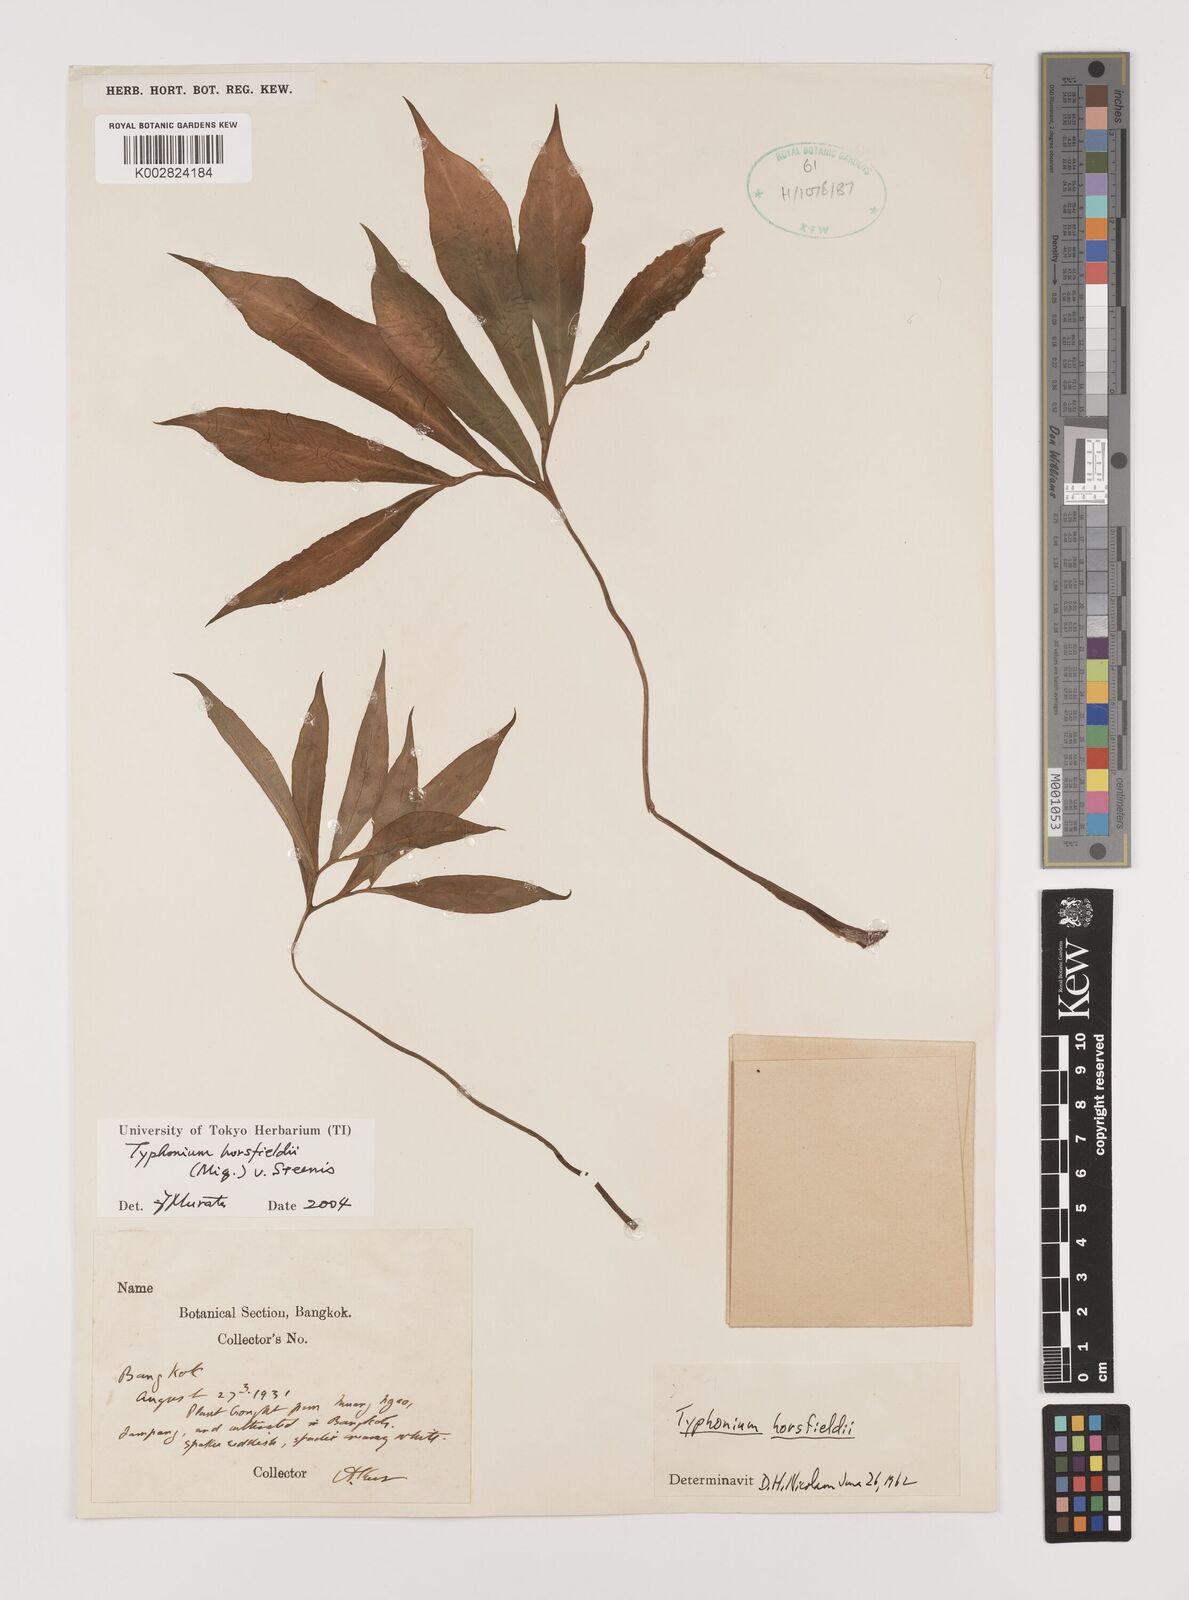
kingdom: Plantae
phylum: Tracheophyta
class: Liliopsida
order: Alismatales
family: Araceae
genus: Sauromatum
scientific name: Sauromatum horsfieldii
